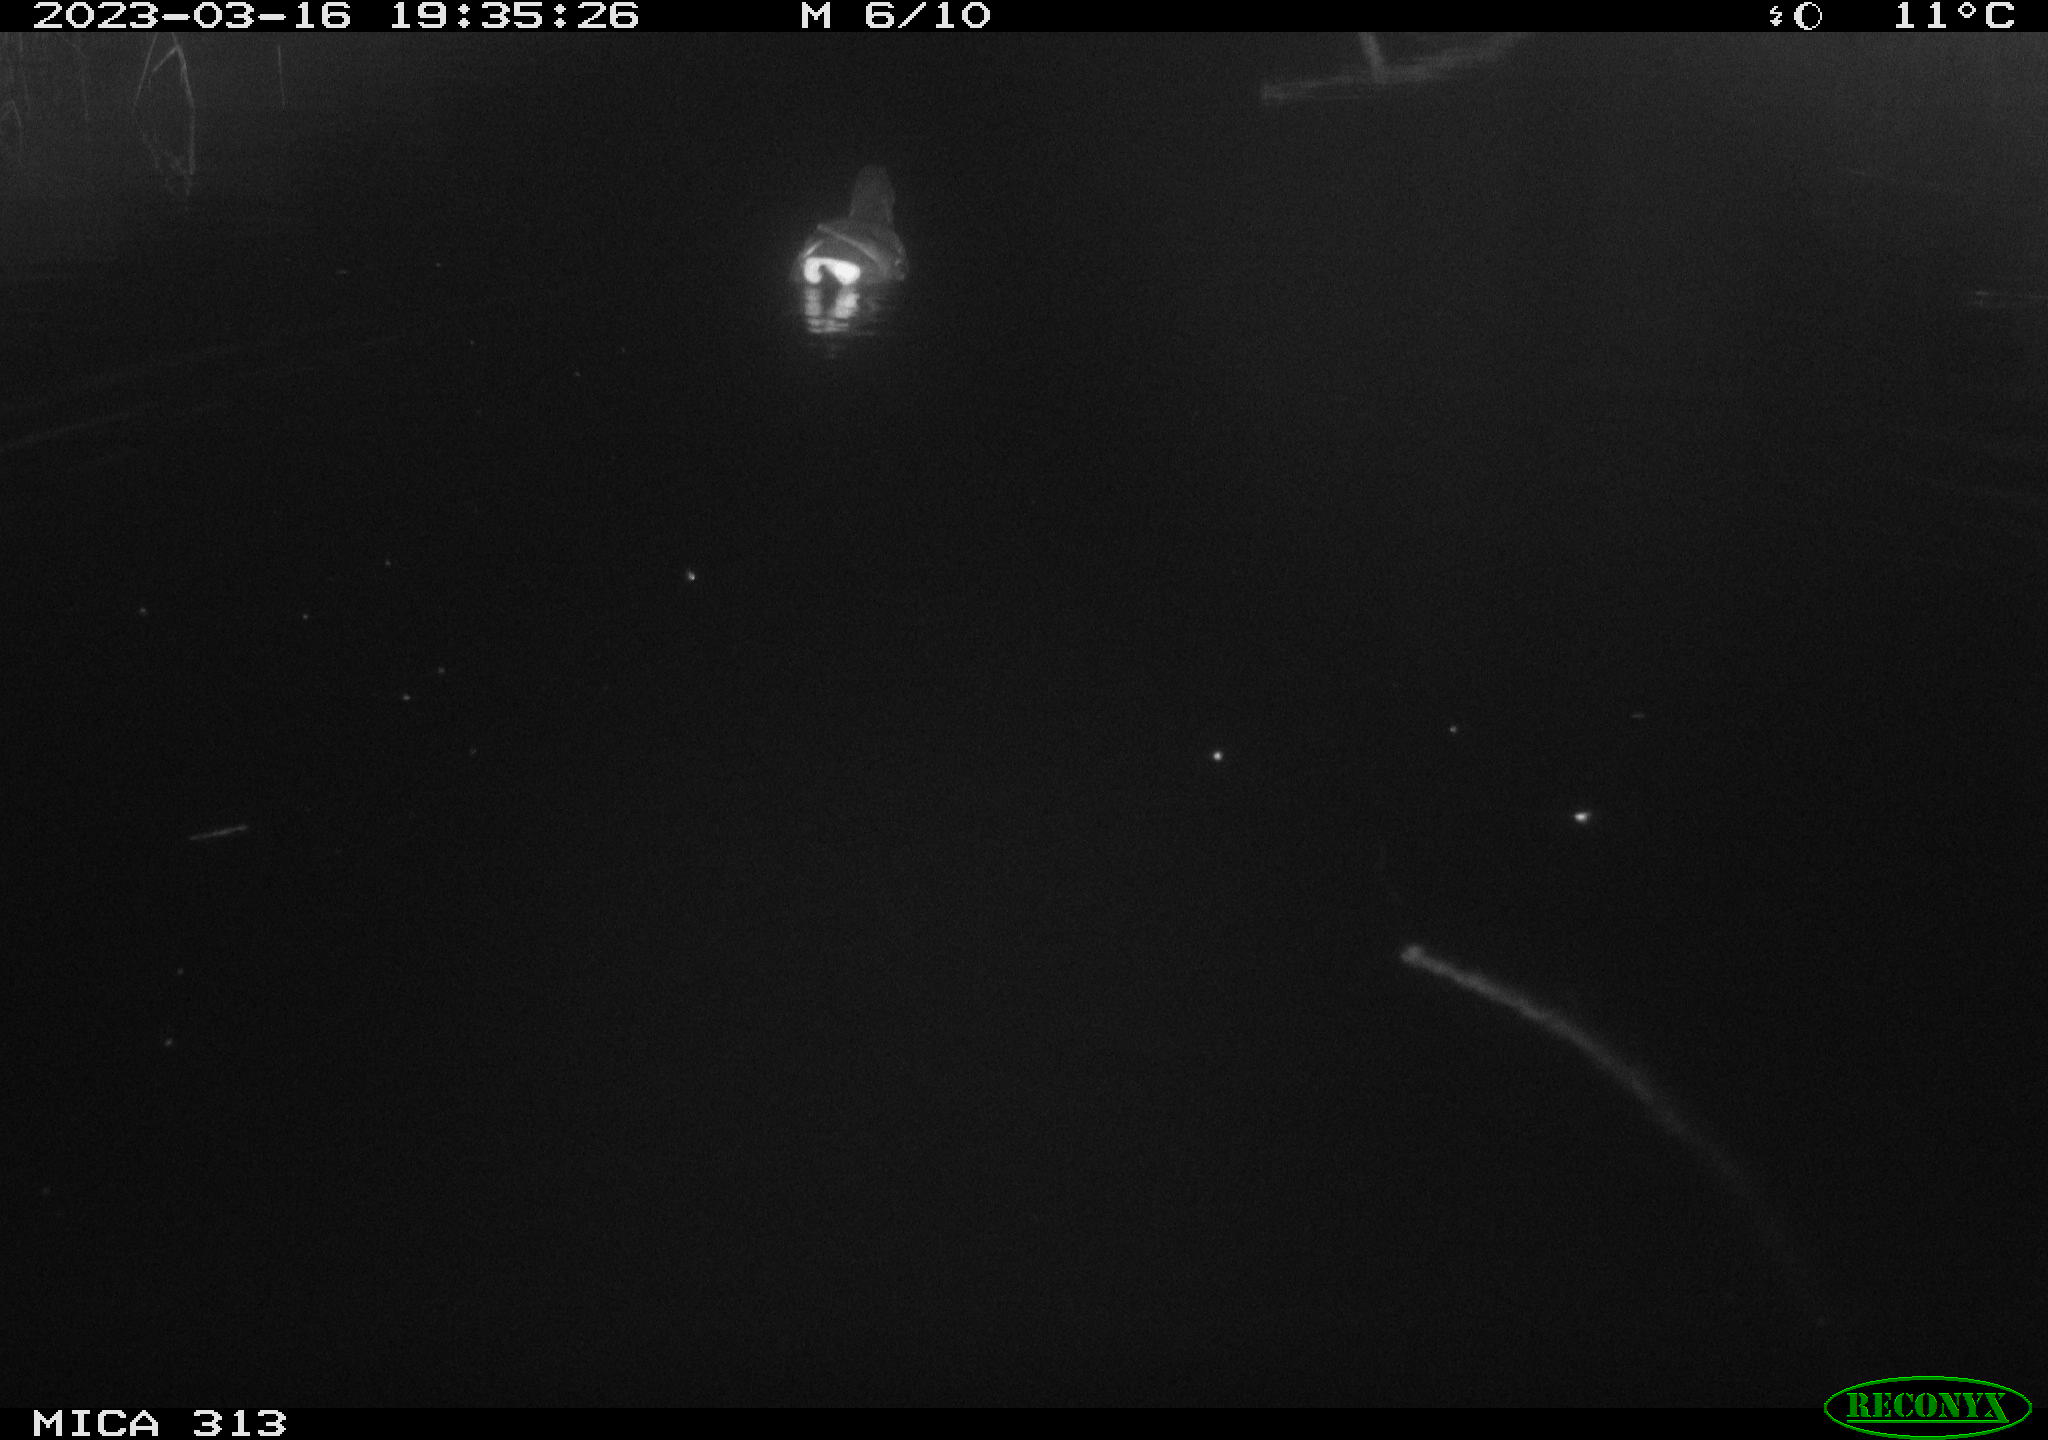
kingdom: Animalia
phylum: Chordata
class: Aves
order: Gruiformes
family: Rallidae
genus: Gallinula
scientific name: Gallinula chloropus
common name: Common moorhen
